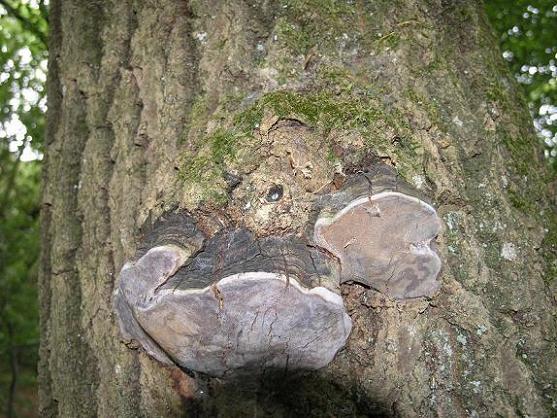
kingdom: Fungi
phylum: Basidiomycota
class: Agaricomycetes
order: Hymenochaetales
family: Hymenochaetaceae
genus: Phellinus
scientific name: Phellinus tremulae
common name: aspe-ildporesvamp
